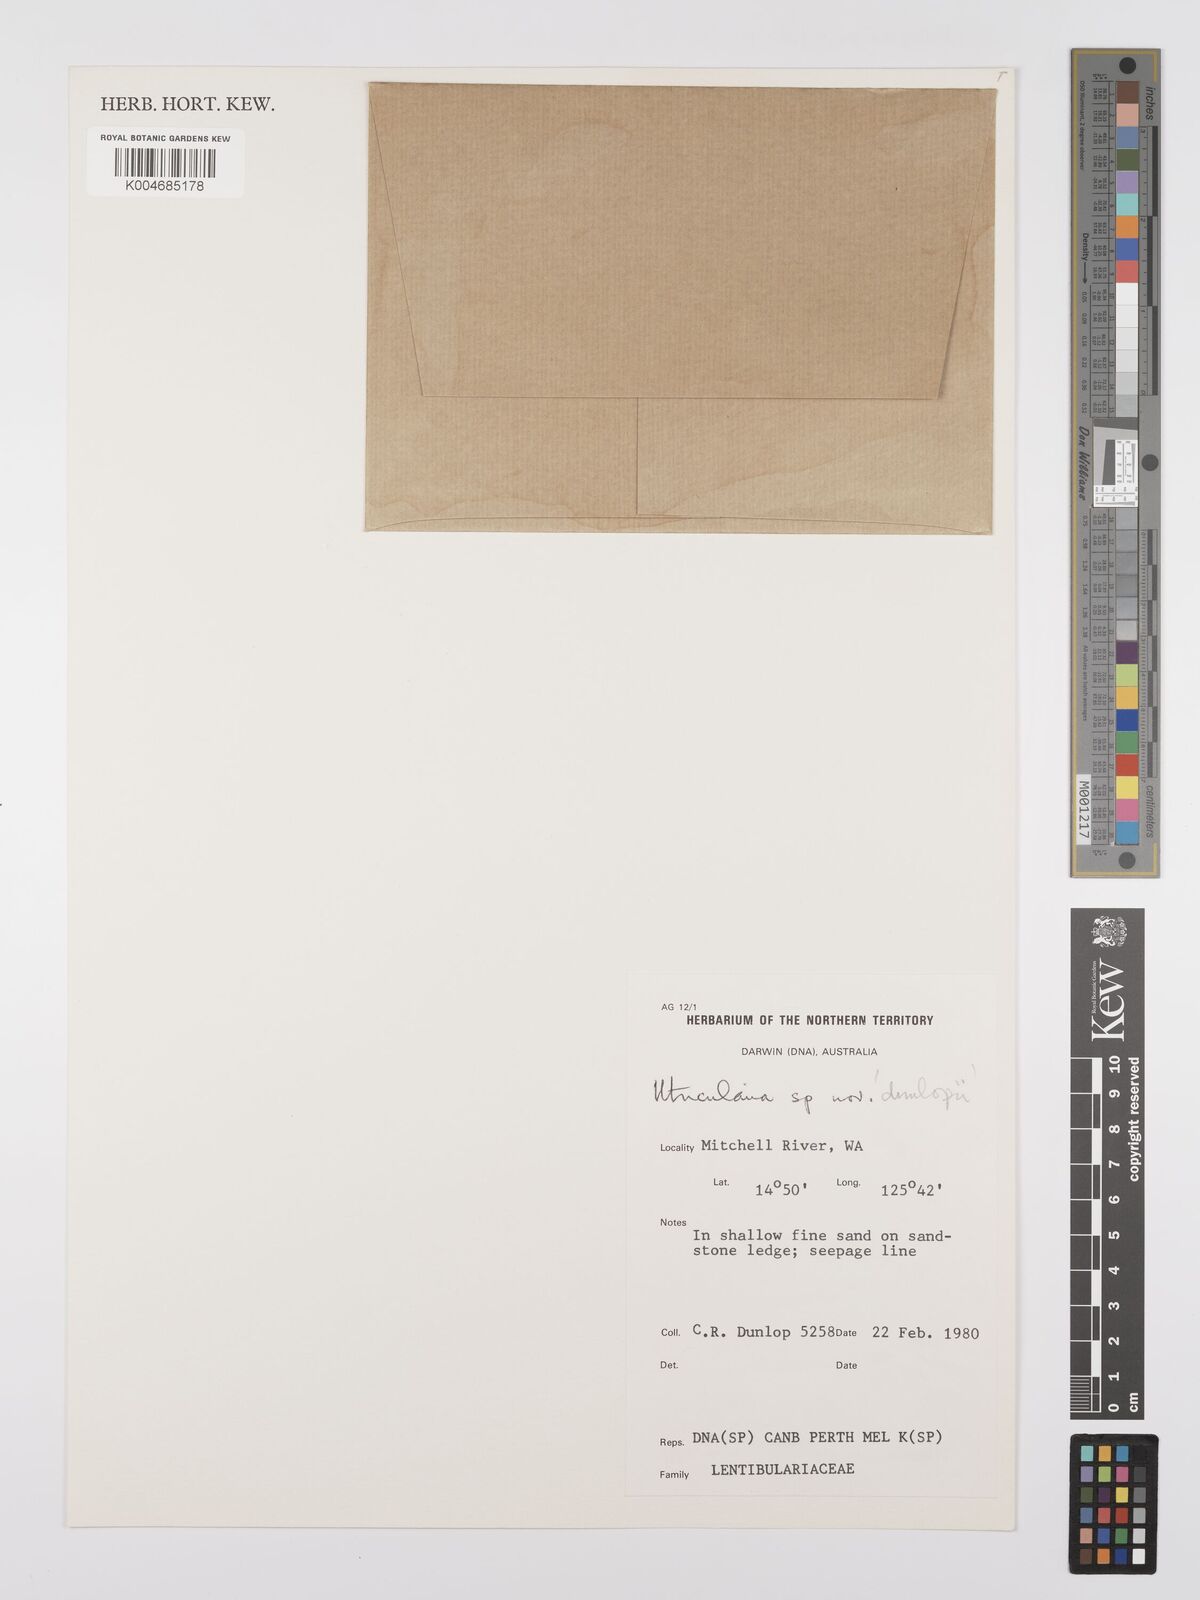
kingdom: Plantae
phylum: Tracheophyta
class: Magnoliopsida
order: Lamiales
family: Lentibulariaceae
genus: Utricularia
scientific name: Utricularia dunlopii
